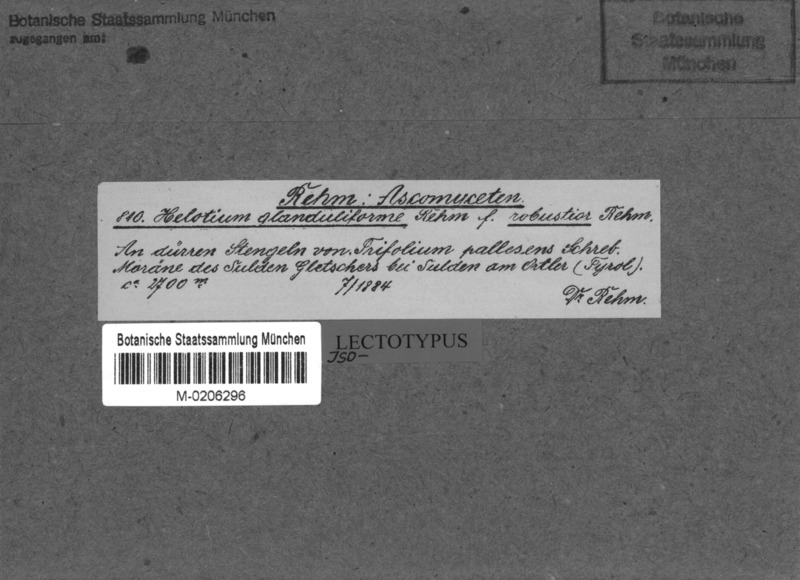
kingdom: Fungi
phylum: Ascomycota
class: Leotiomycetes
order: Helotiales
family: Helotiaceae
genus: Cyathicula
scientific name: Cyathicula cyathoidea
